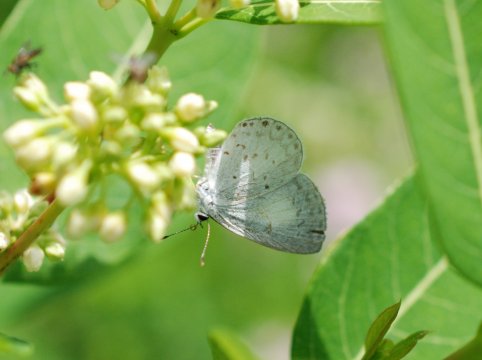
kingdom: Animalia
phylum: Arthropoda
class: Insecta
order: Lepidoptera
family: Lycaenidae
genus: Cyaniris
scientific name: Cyaniris neglecta
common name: Summer Azure
